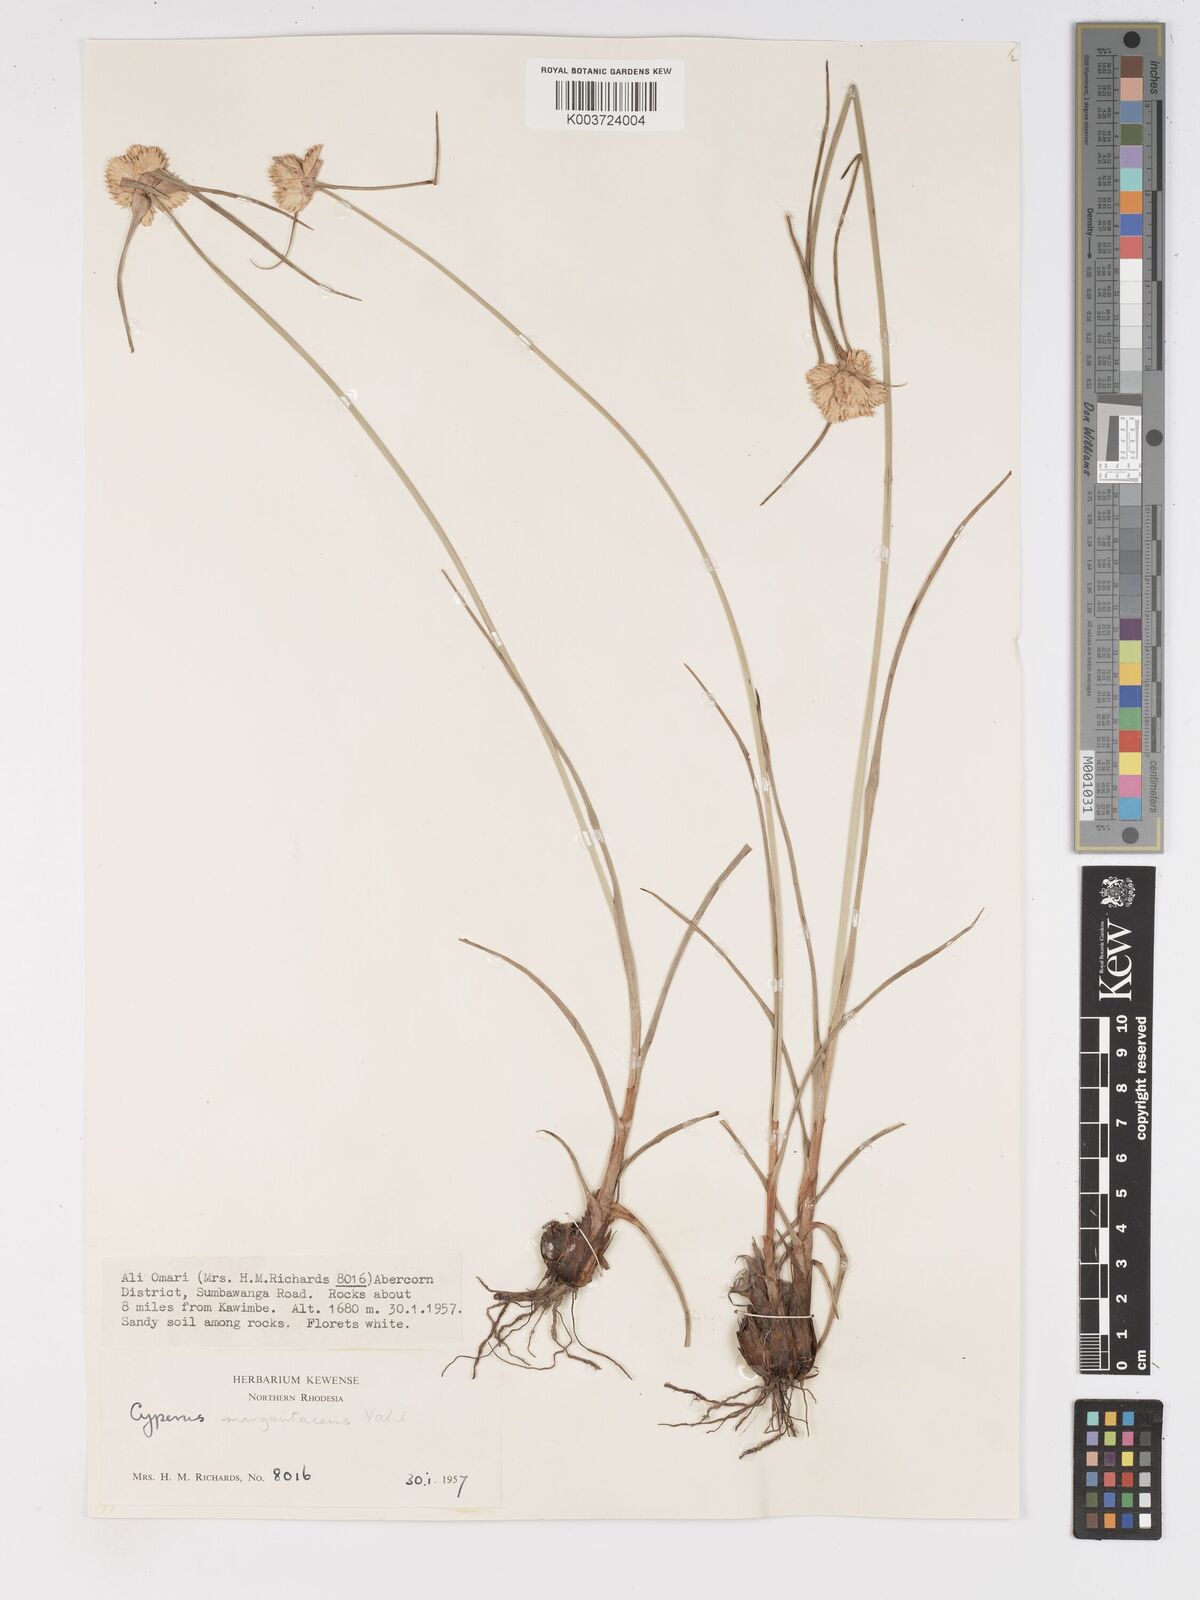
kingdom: Plantae
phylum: Tracheophyta
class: Liliopsida
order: Poales
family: Cyperaceae
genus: Cyperus
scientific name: Cyperus niveus
